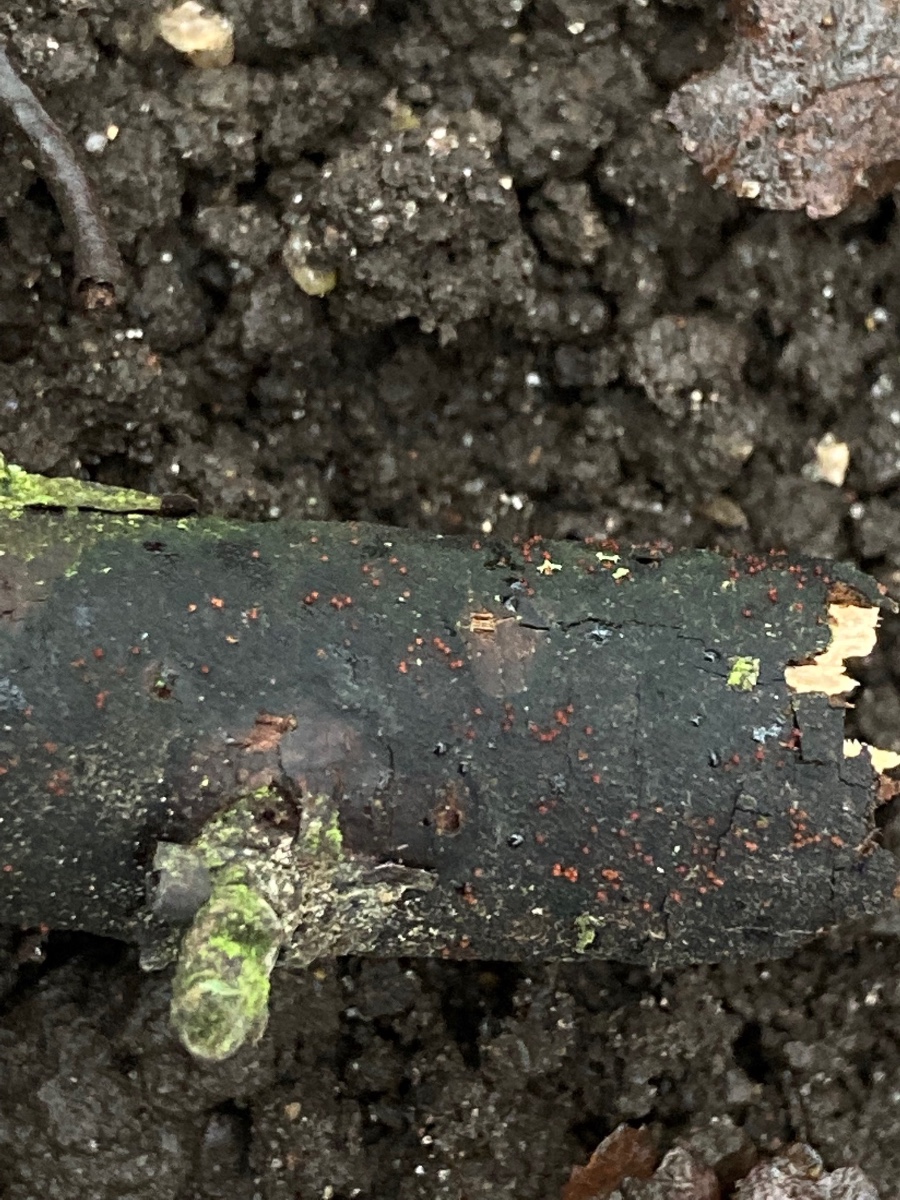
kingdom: Fungi
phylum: Ascomycota
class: Sordariomycetes
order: Hypocreales
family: Nectriaceae
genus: Dialonectria
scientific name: Dialonectria episphaeria
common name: kulskorpe-cinnobersvamp
